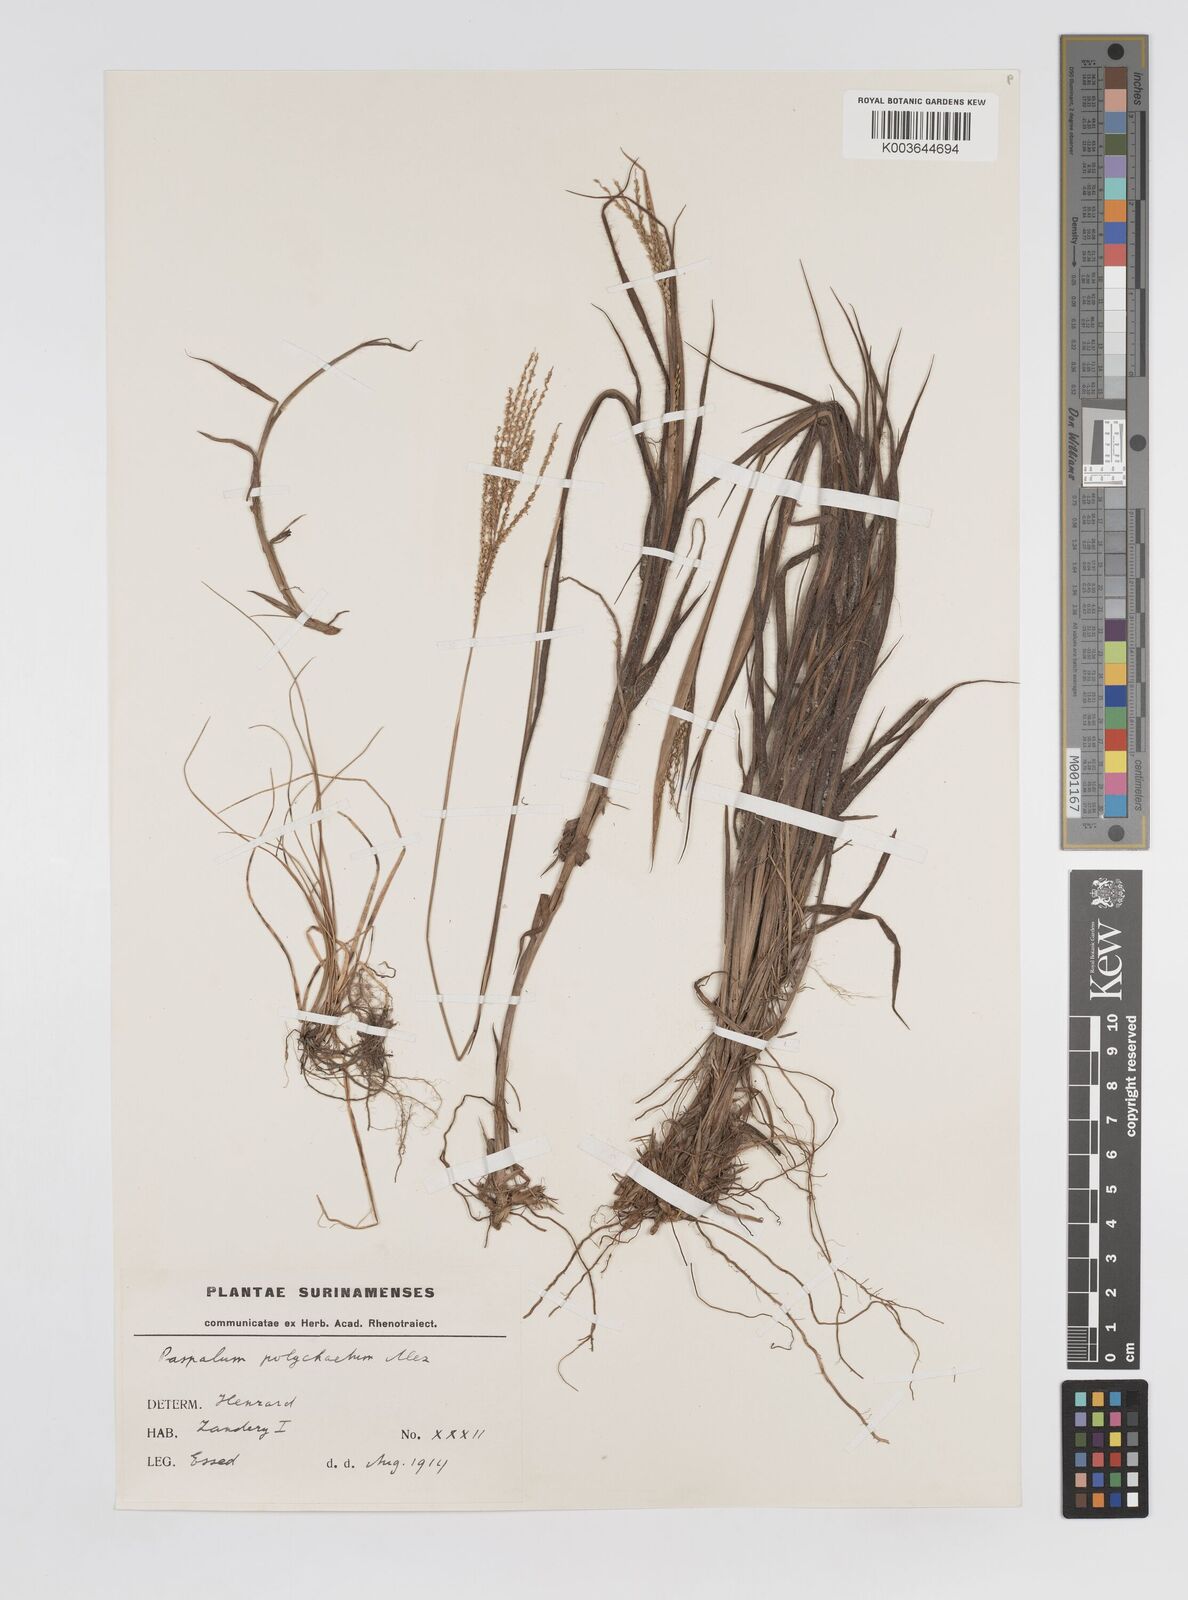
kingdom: Plantae
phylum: Tracheophyta
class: Liliopsida
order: Poales
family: Poaceae
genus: Paspalum
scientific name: Paspalum hyalinum
